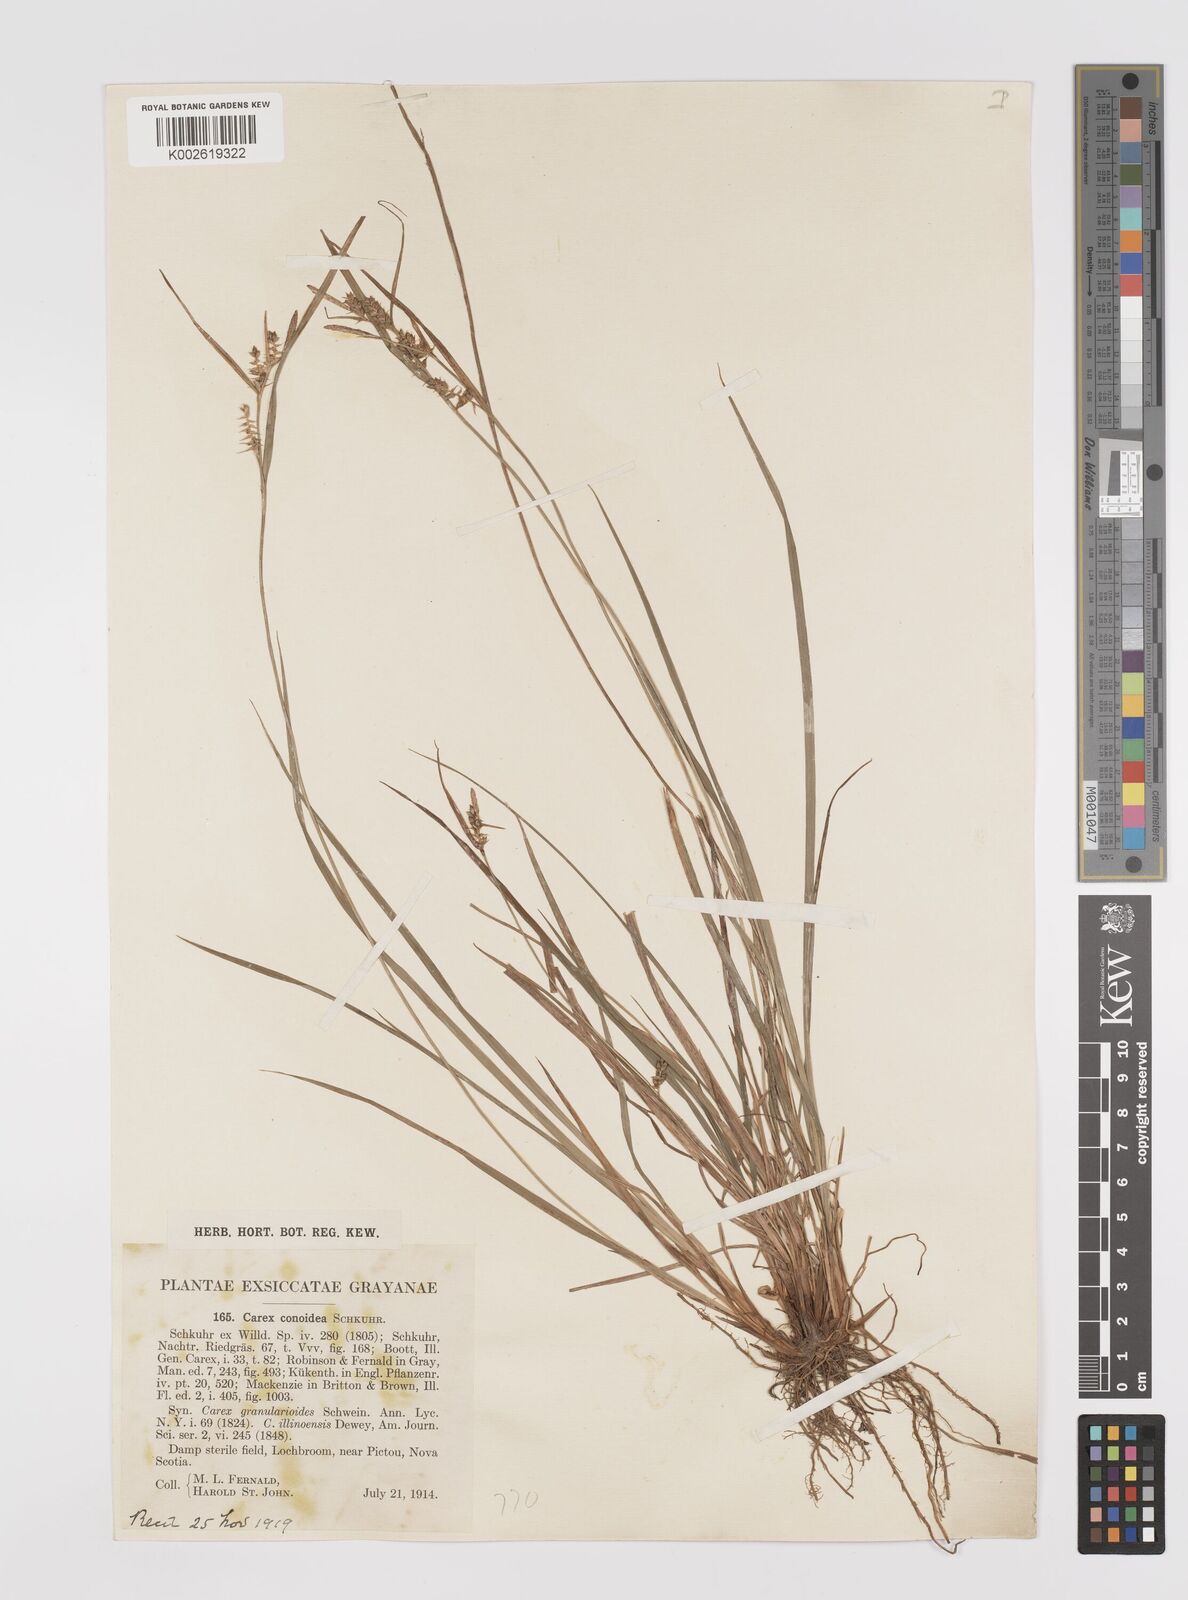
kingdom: Plantae
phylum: Tracheophyta
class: Liliopsida
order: Poales
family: Cyperaceae
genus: Carex
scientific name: Carex conoidea
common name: Cone shaped sedge
